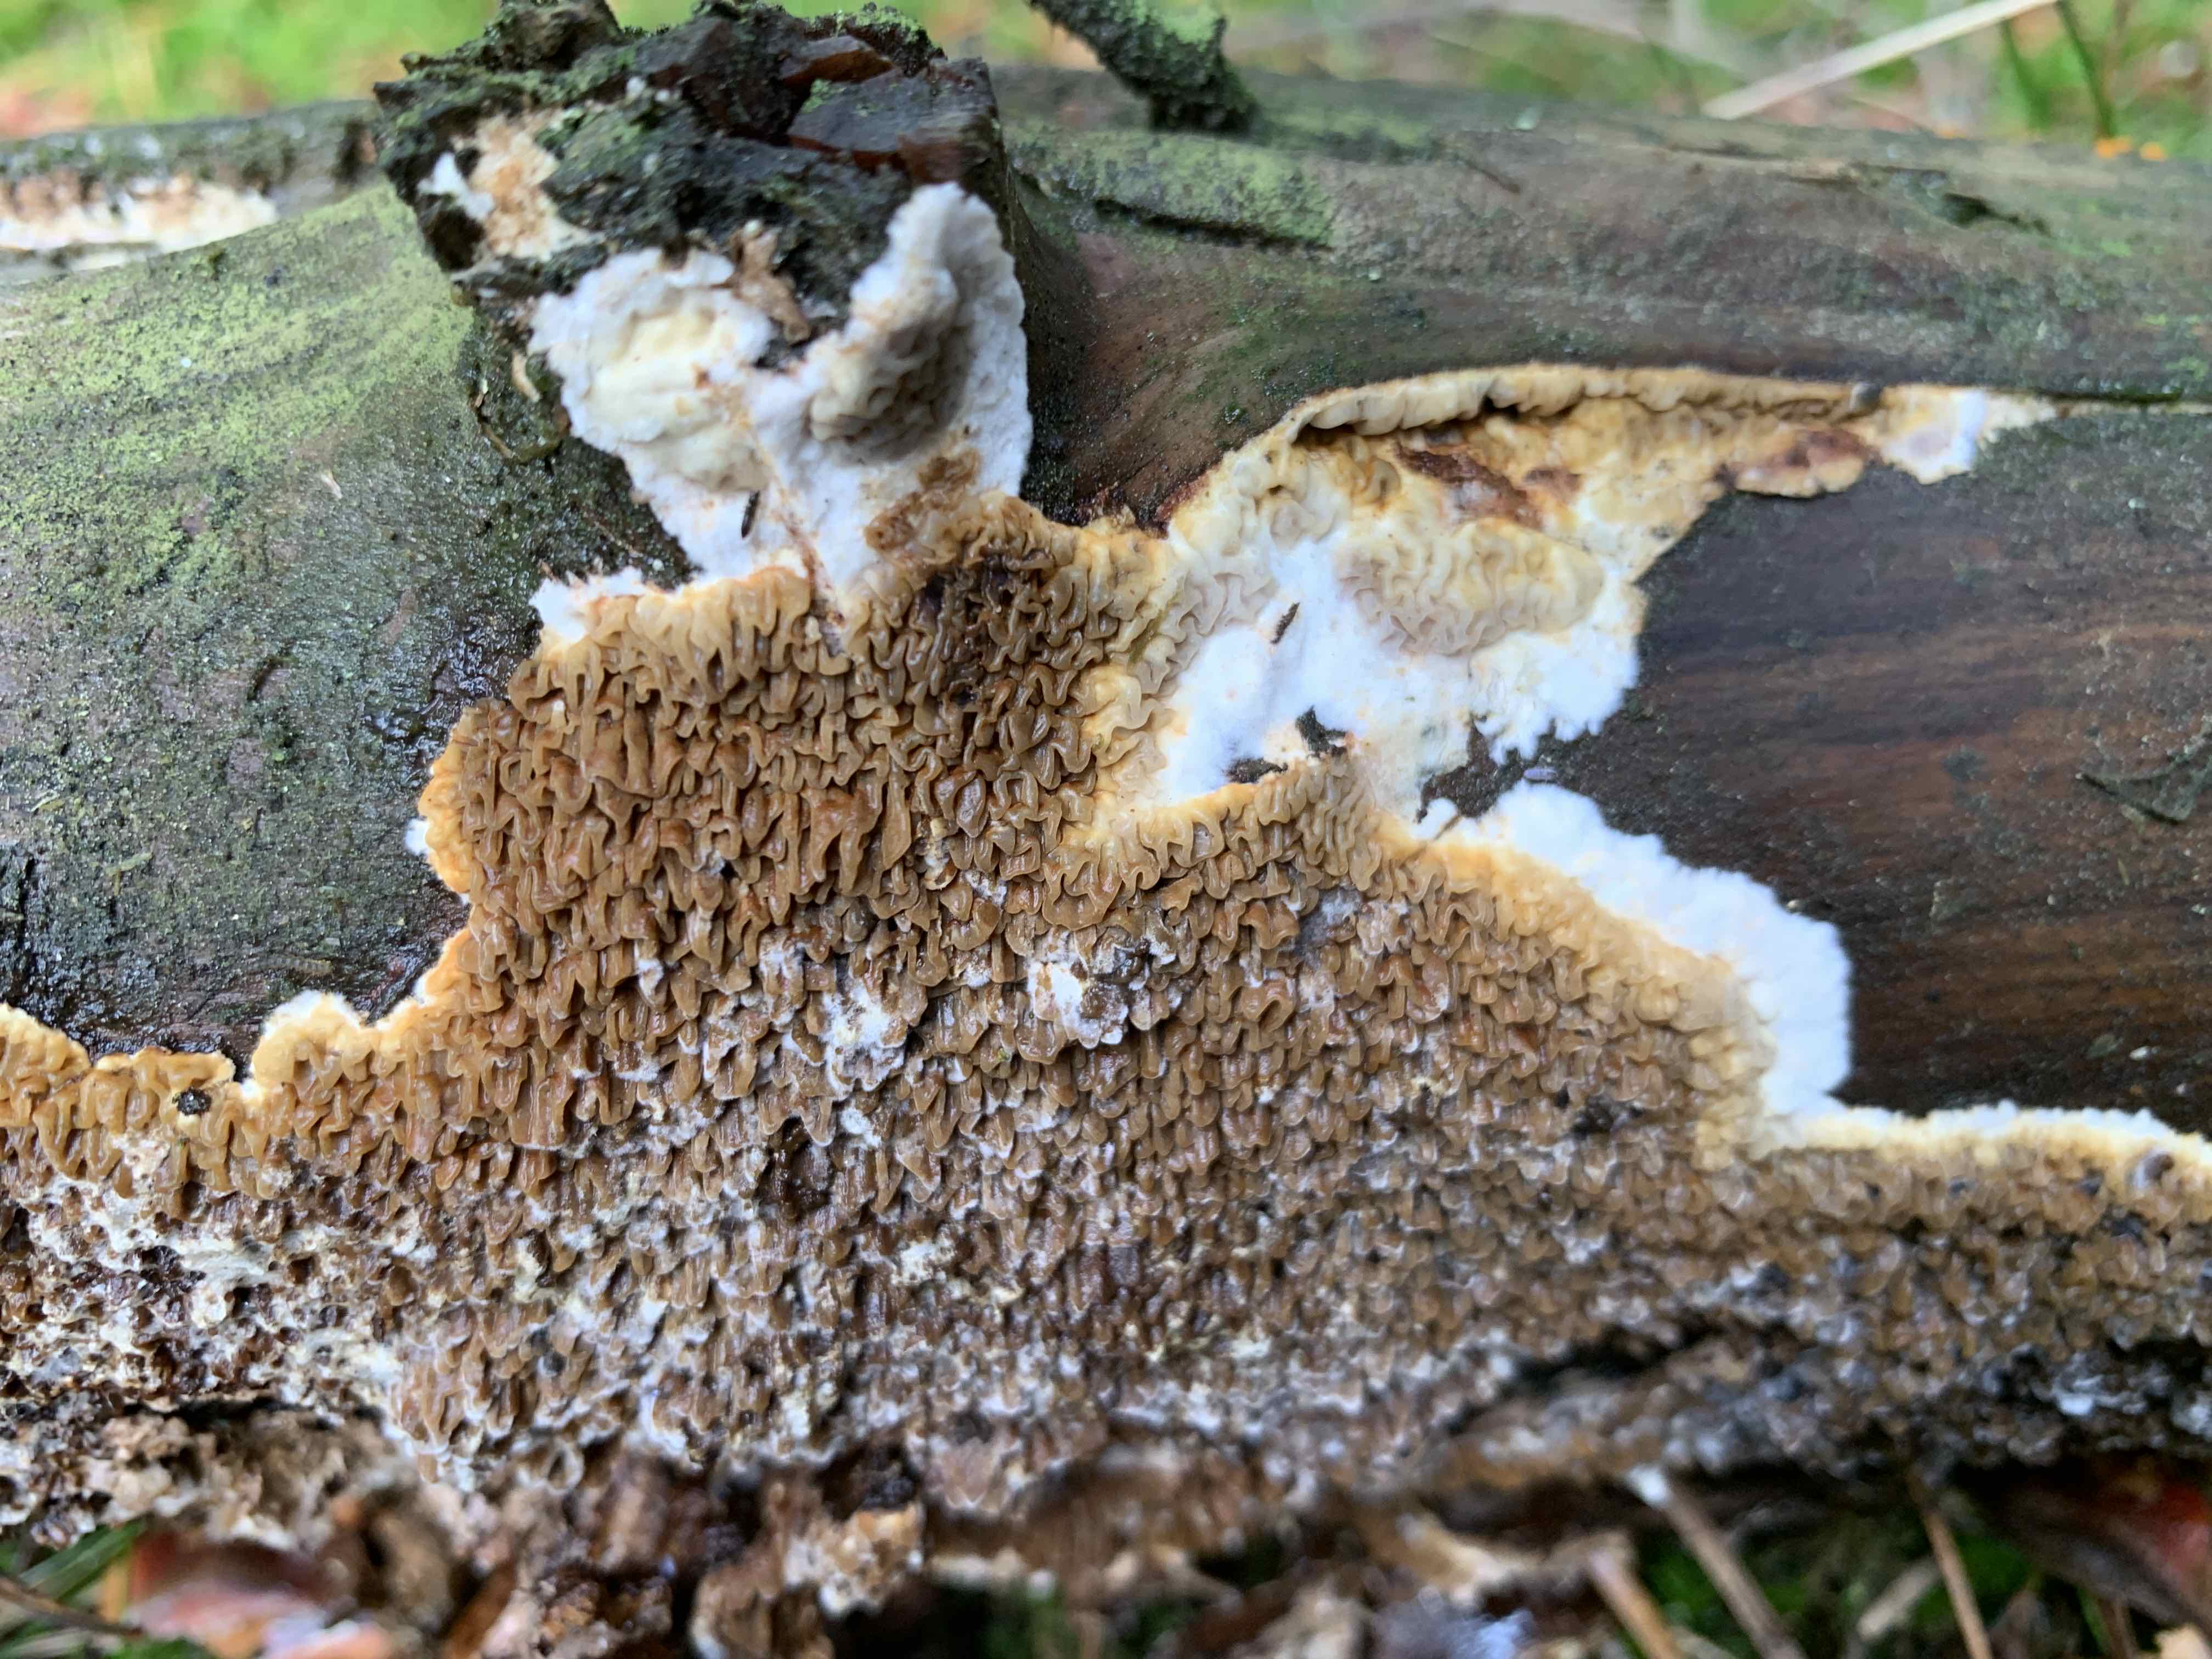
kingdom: Fungi
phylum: Basidiomycota
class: Agaricomycetes
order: Boletales
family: Serpulaceae
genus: Serpula
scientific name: Serpula himantioides
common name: tyndkødet hussvamp
